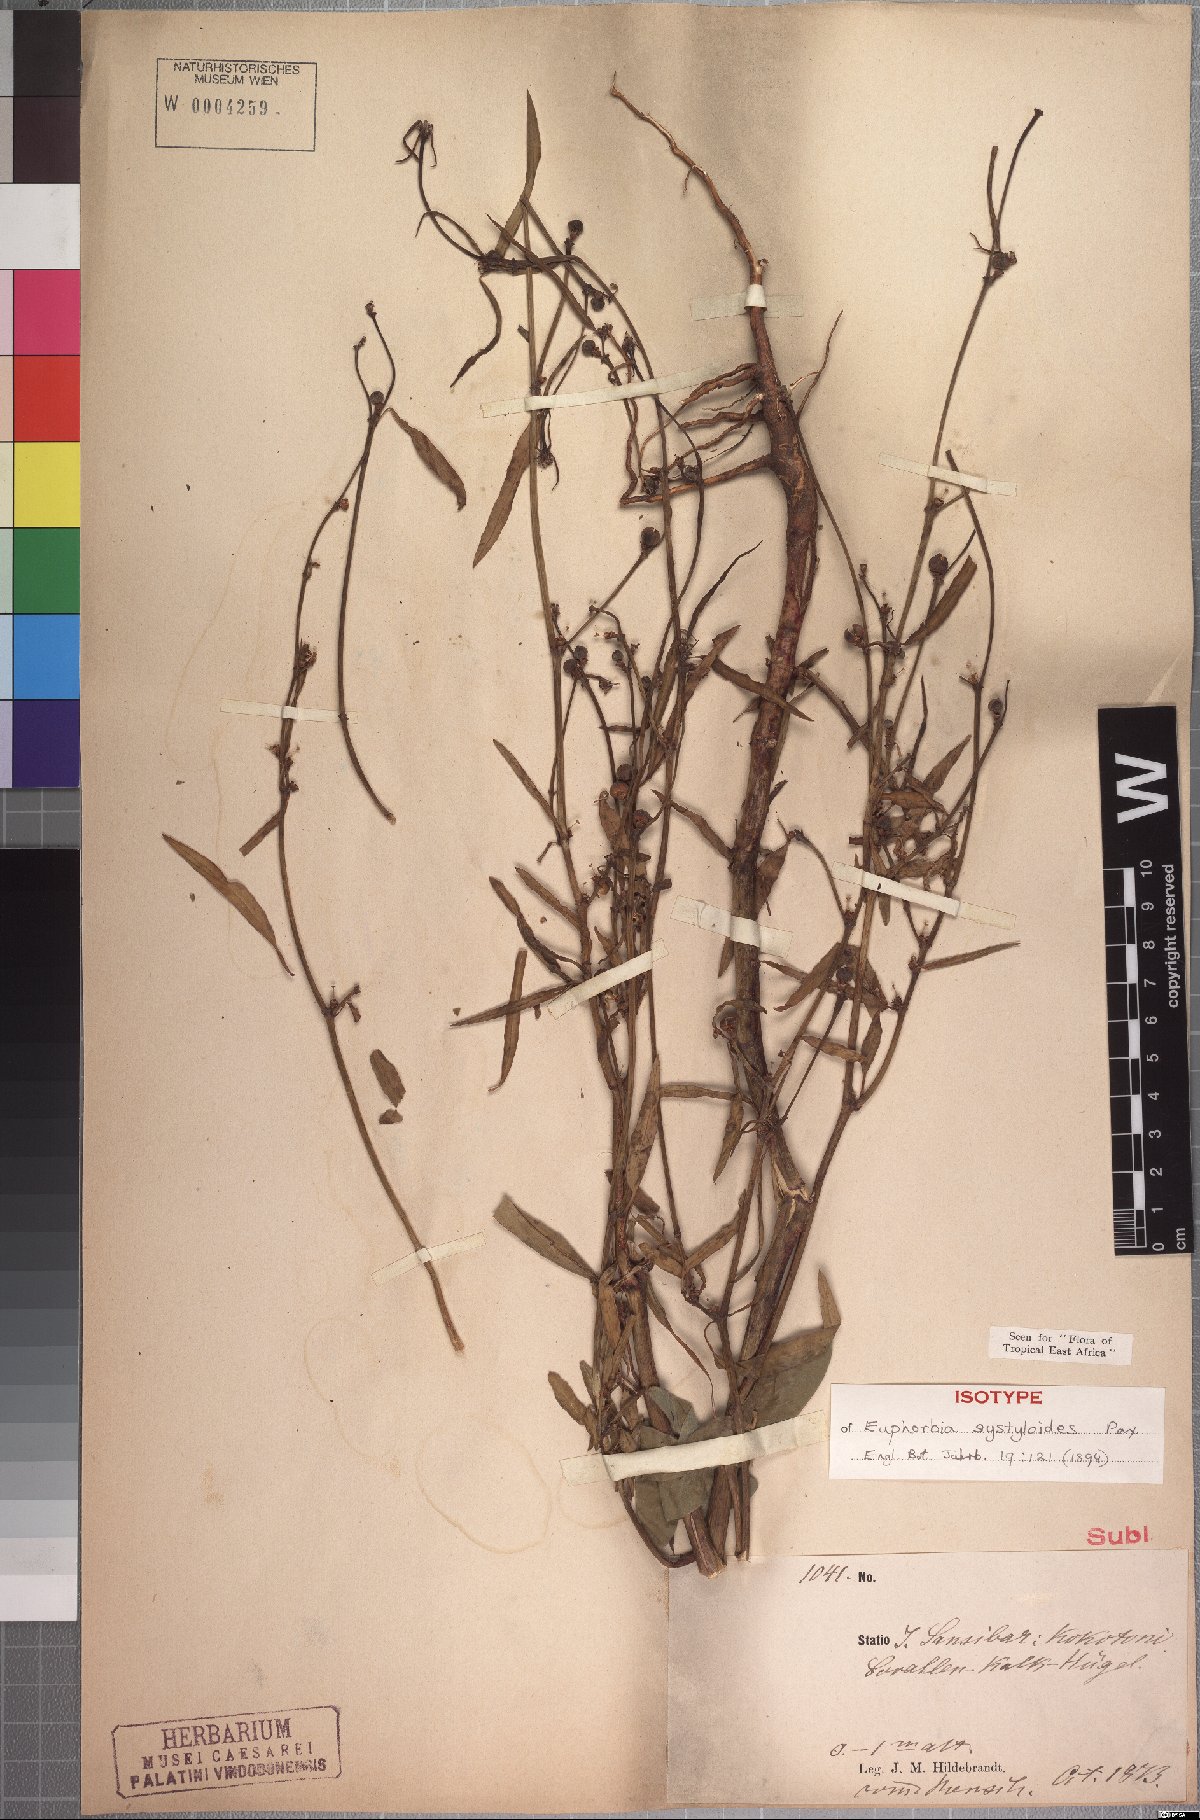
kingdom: Plantae
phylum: Tracheophyta
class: Magnoliopsida
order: Malpighiales
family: Euphorbiaceae
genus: Euphorbia
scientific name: Euphorbia systyloides
